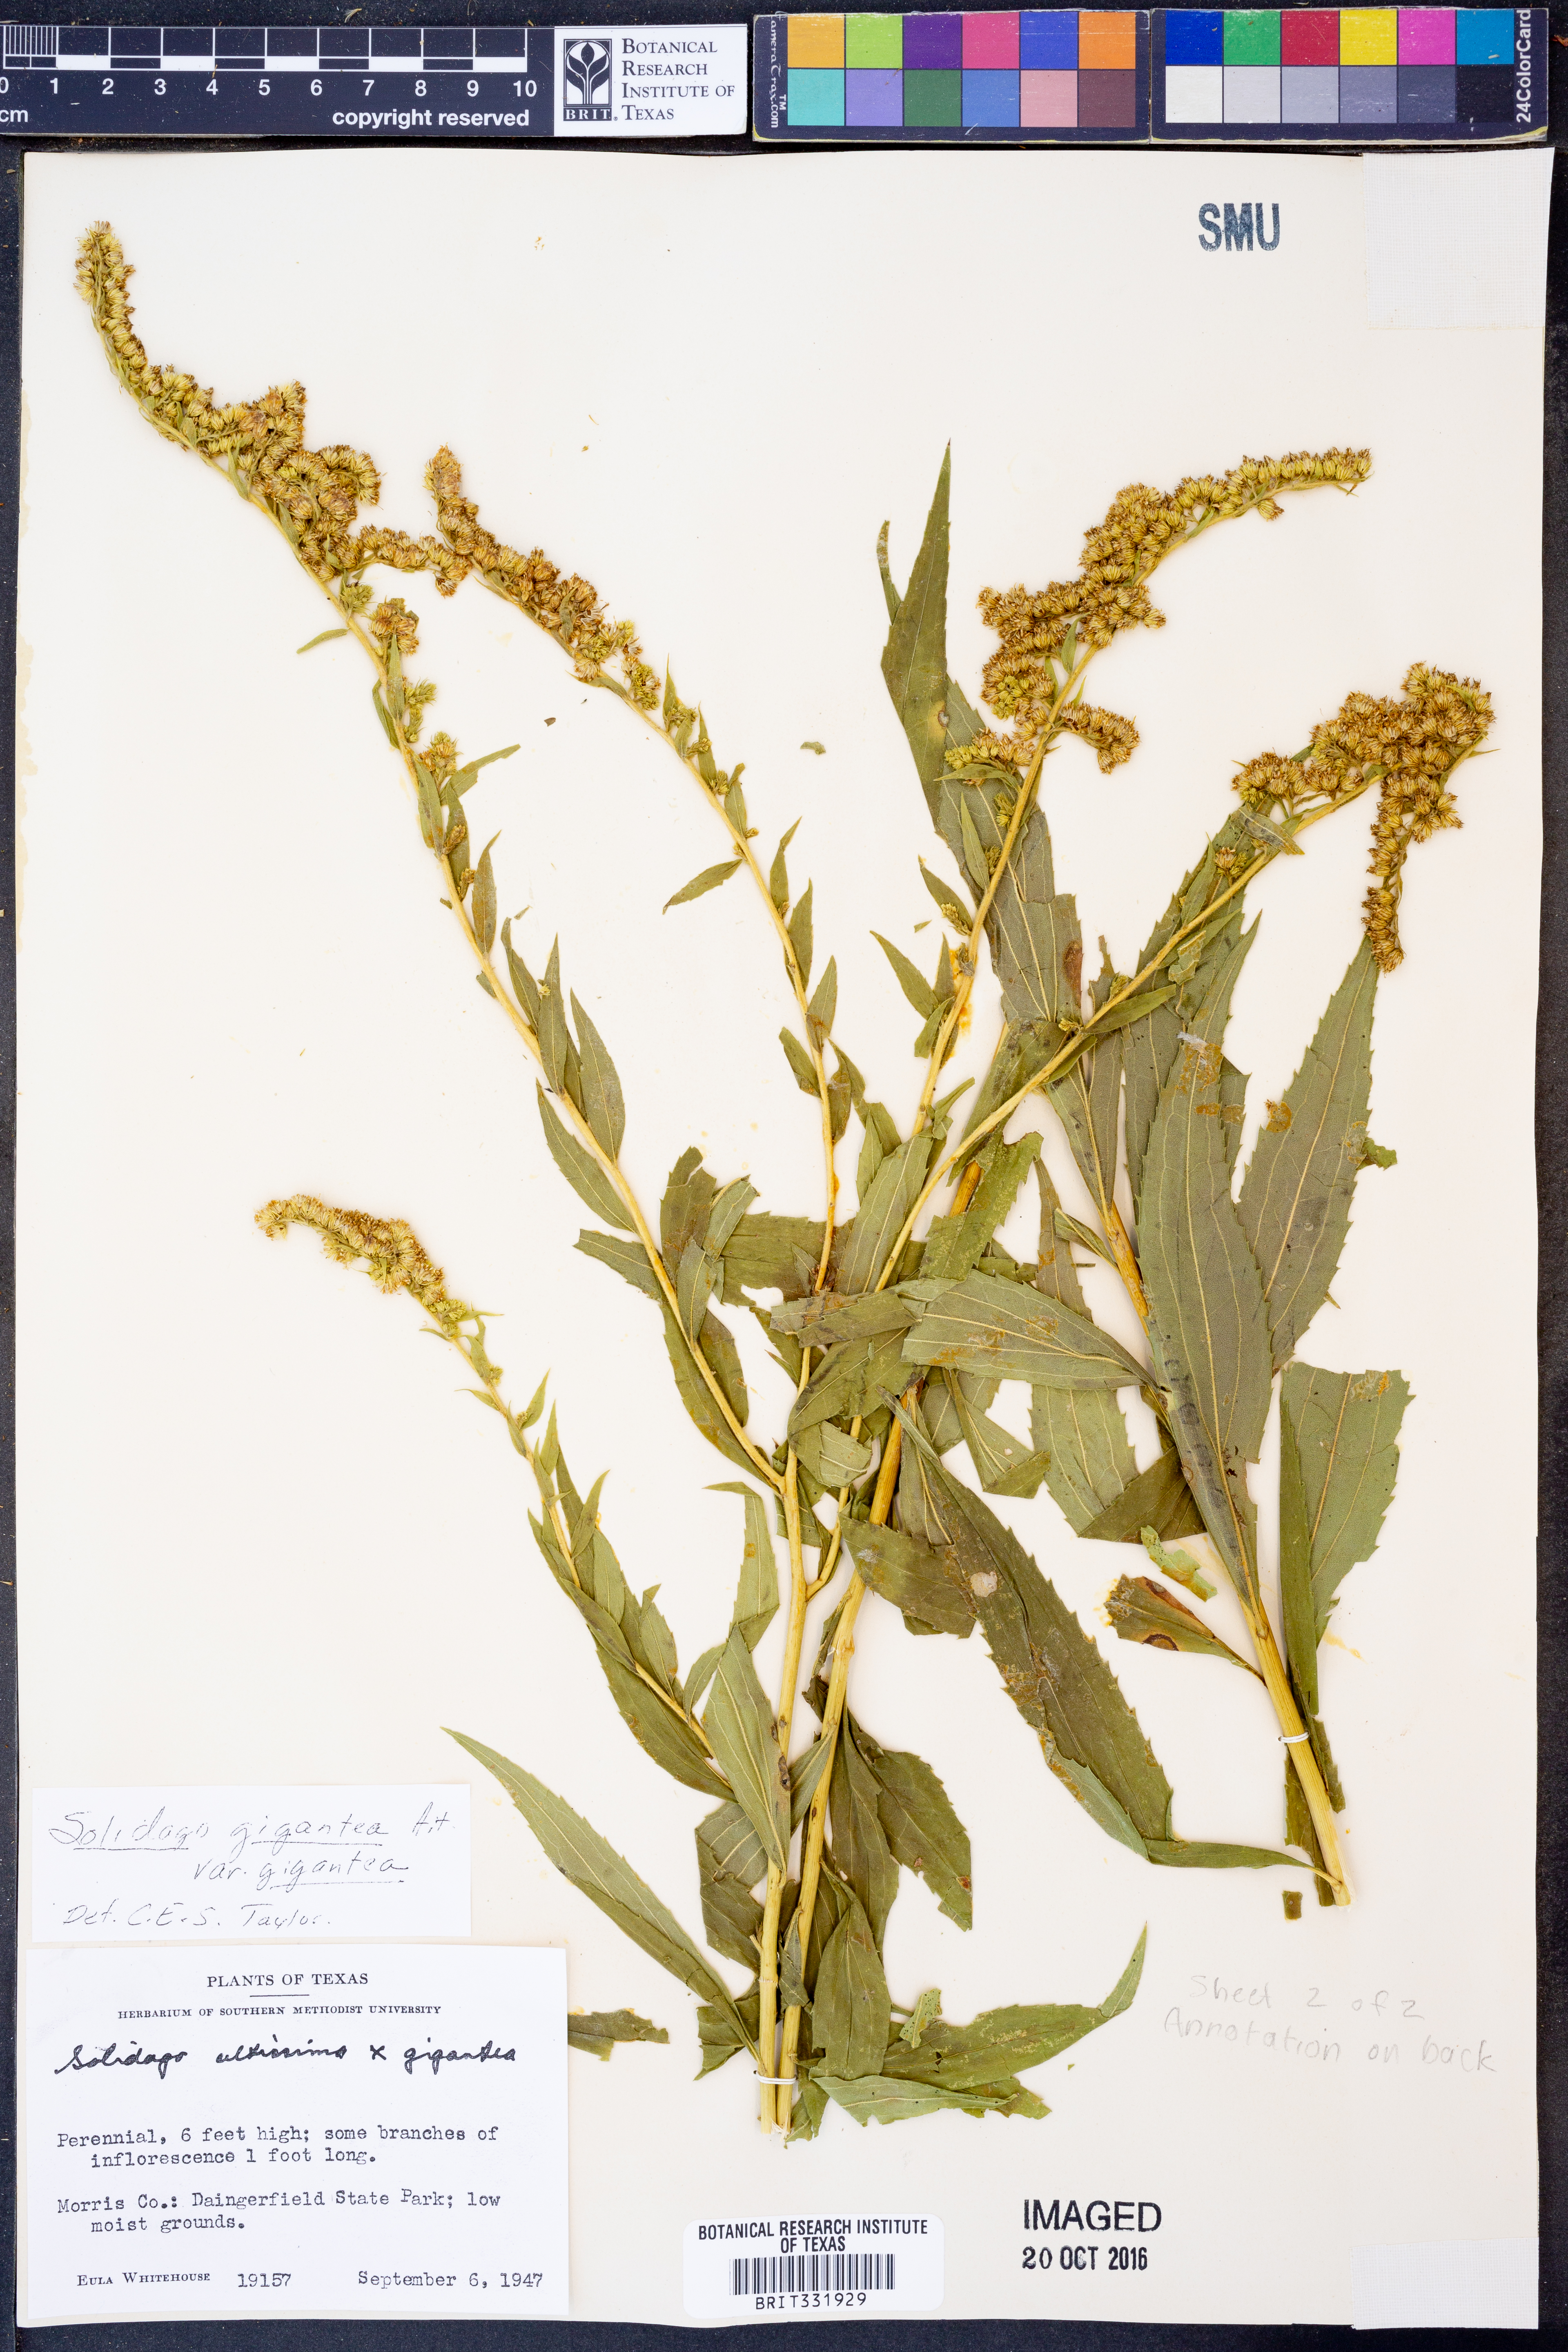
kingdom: Plantae
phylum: Tracheophyta
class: Magnoliopsida
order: Asterales
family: Asteraceae
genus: Solidago
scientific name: Solidago gigantea
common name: Giant goldenrod
